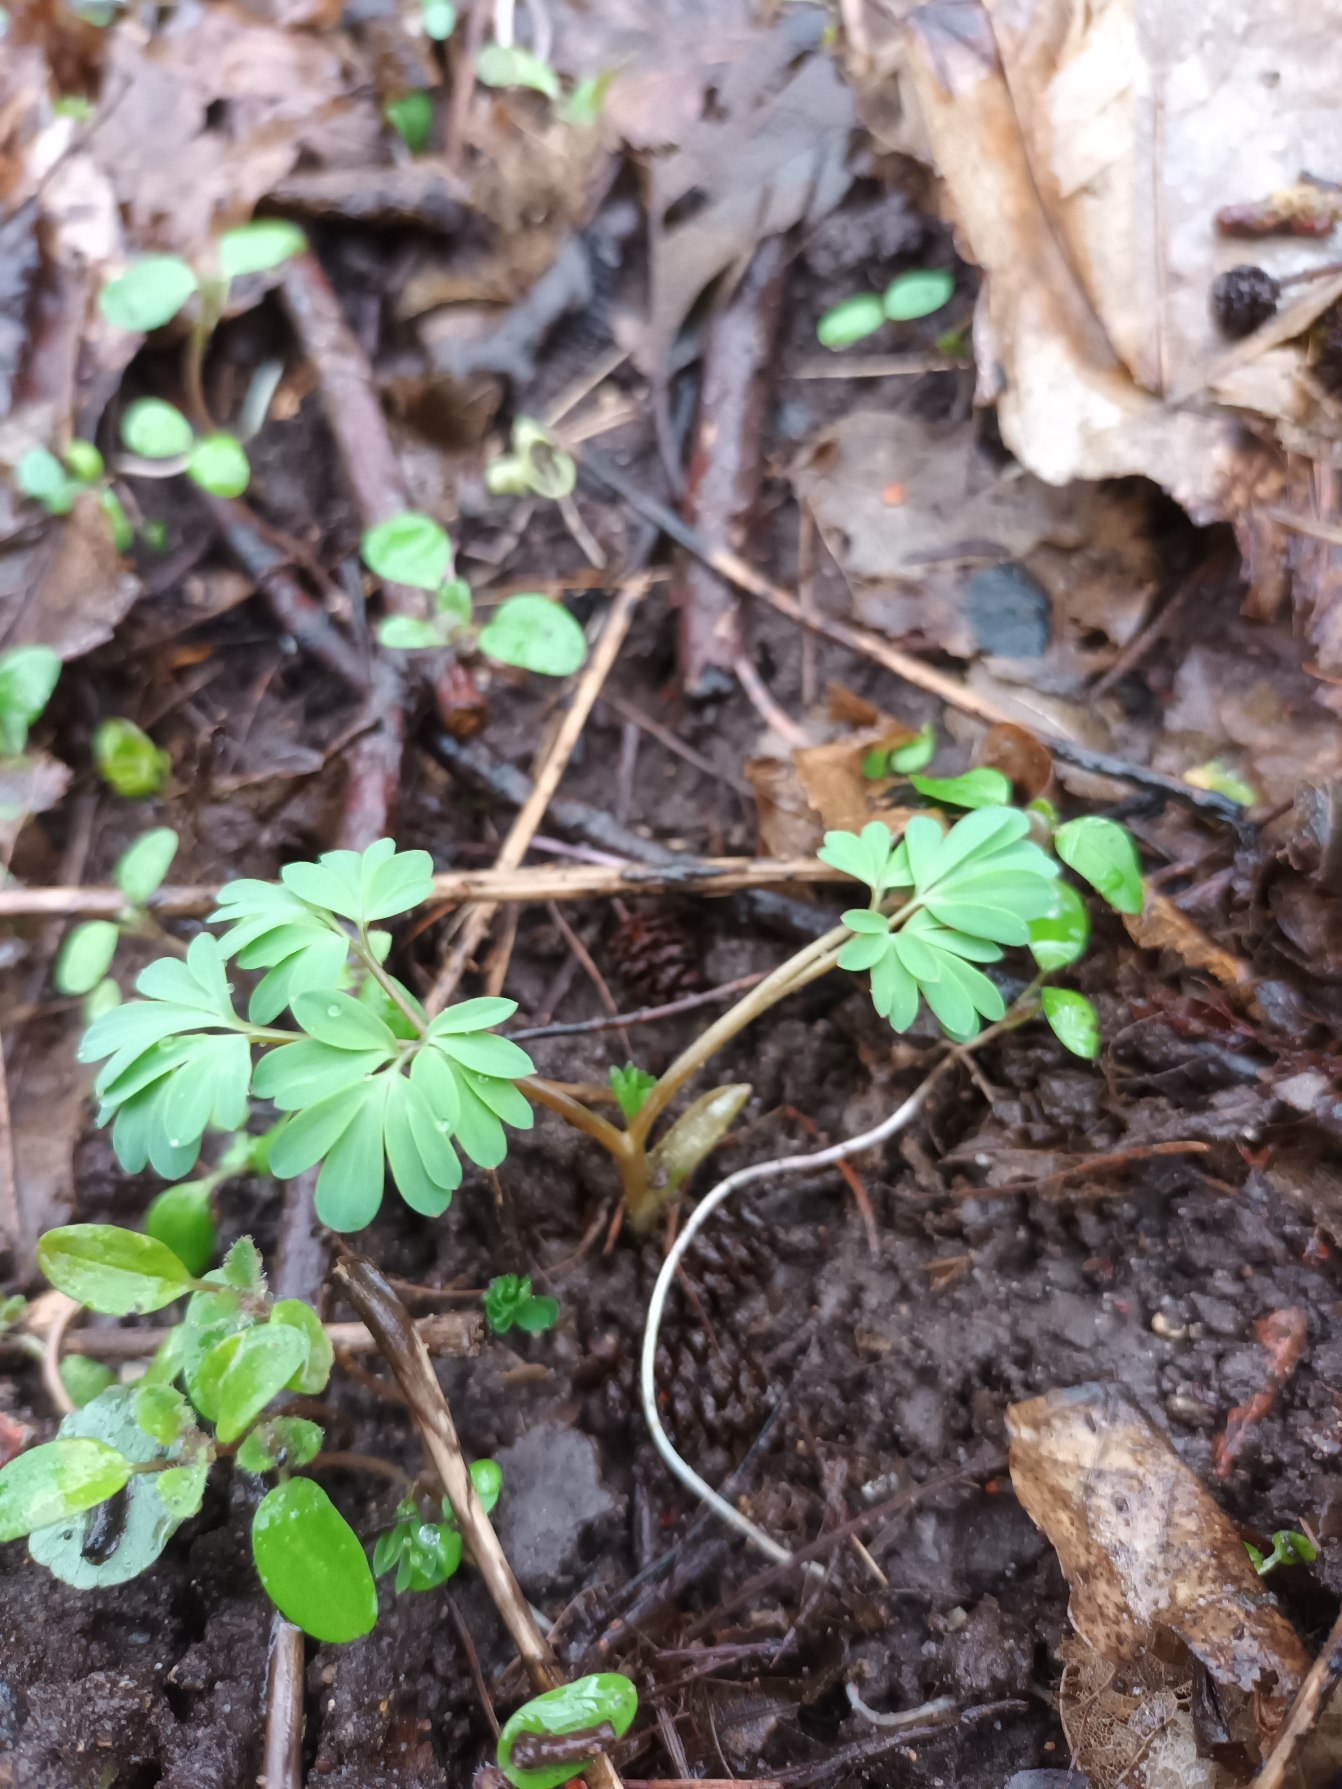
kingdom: Plantae
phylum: Tracheophyta
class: Magnoliopsida
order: Ranunculales
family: Papaveraceae
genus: Corydalis
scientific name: Corydalis intermedia
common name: Liden lærkespore
